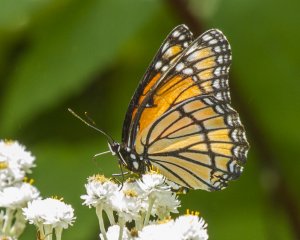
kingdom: Animalia
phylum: Arthropoda
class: Insecta
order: Lepidoptera
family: Nymphalidae
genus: Limenitis
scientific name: Limenitis archippus
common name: Viceroy
